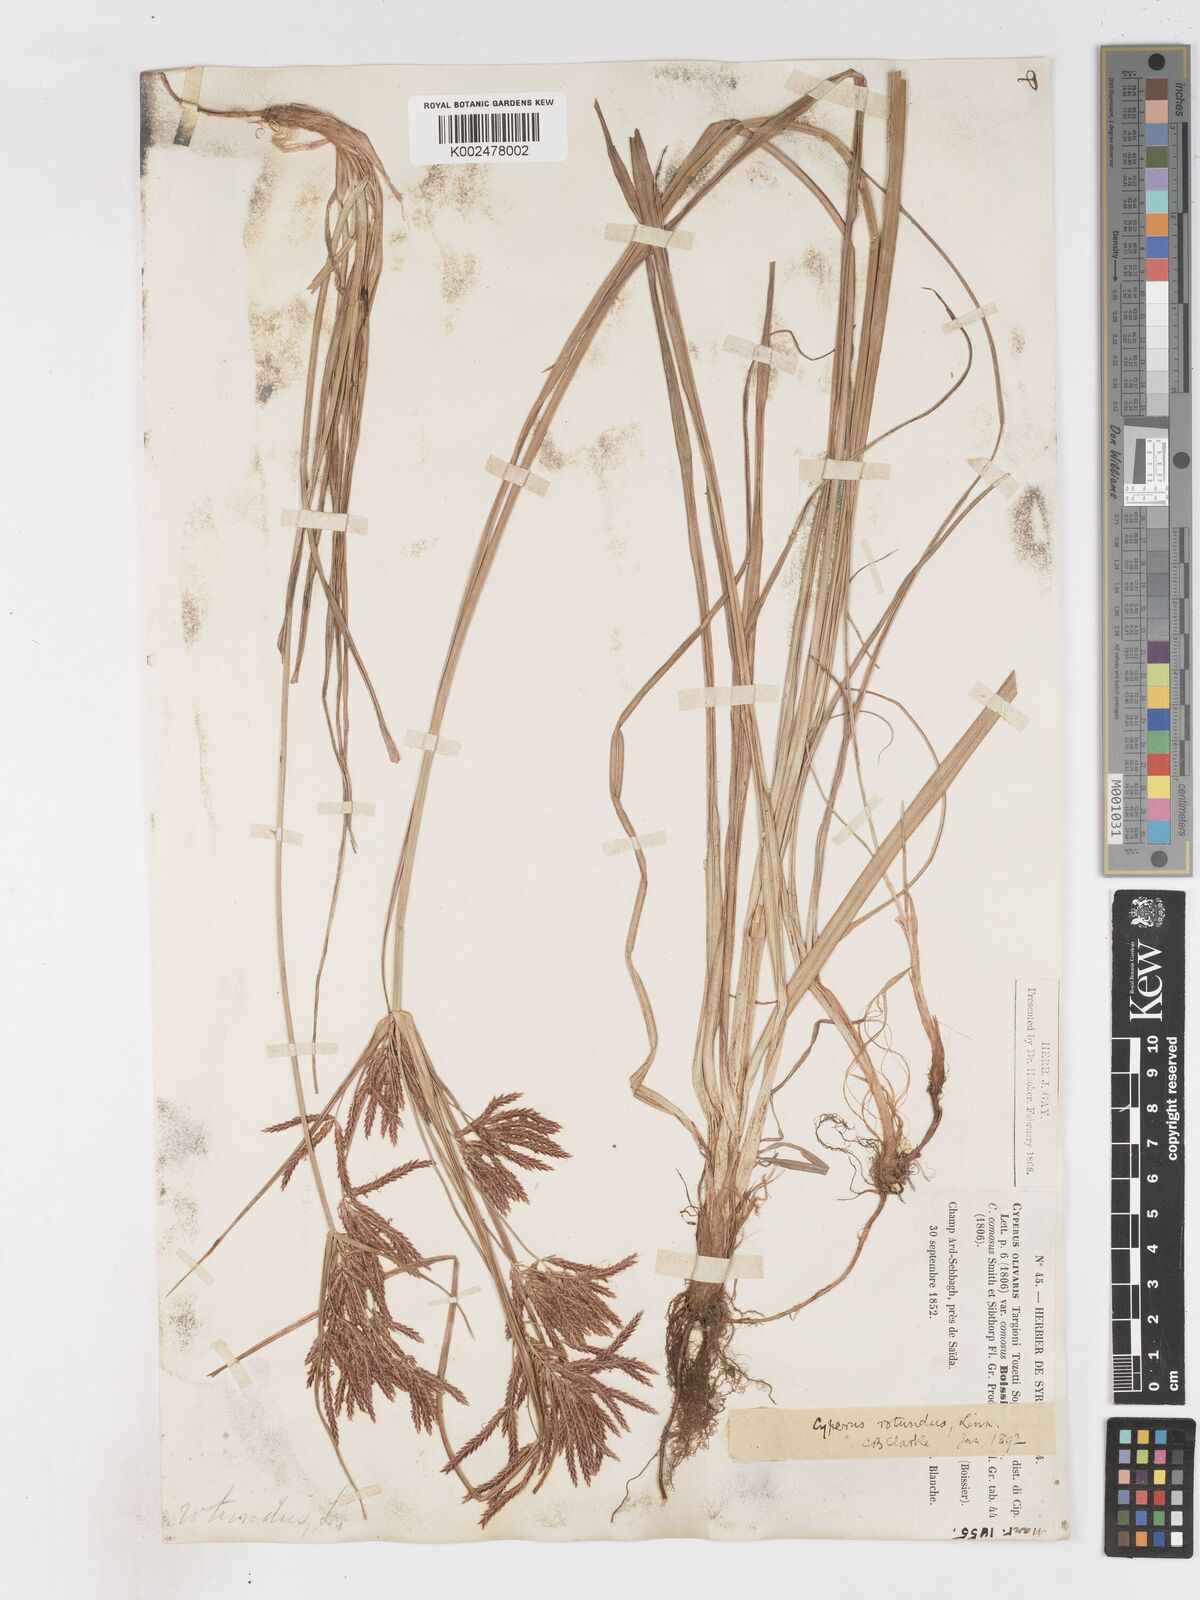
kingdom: Plantae
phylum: Tracheophyta
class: Liliopsida
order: Poales
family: Cyperaceae
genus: Cyperus
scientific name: Cyperus rotundus
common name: Nutgrass
